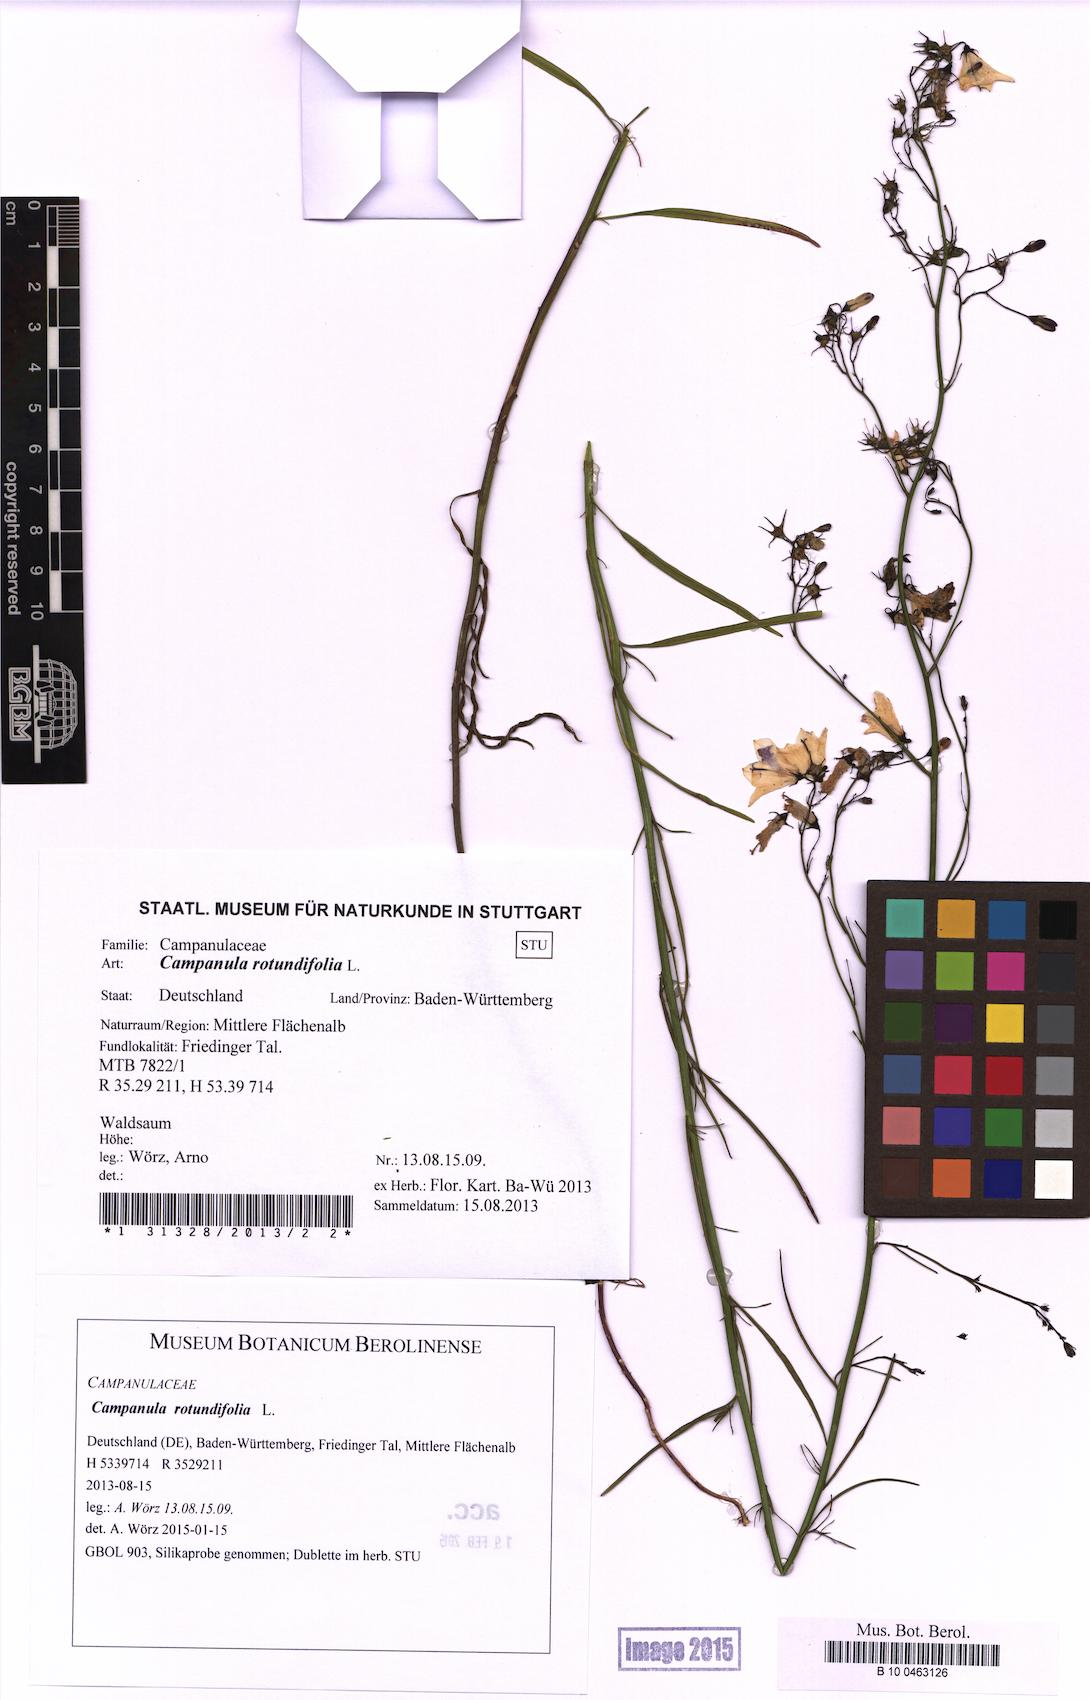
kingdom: Plantae
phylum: Tracheophyta
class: Magnoliopsida
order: Asterales
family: Campanulaceae
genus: Campanula
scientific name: Campanula rotundifolia
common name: Harebell
